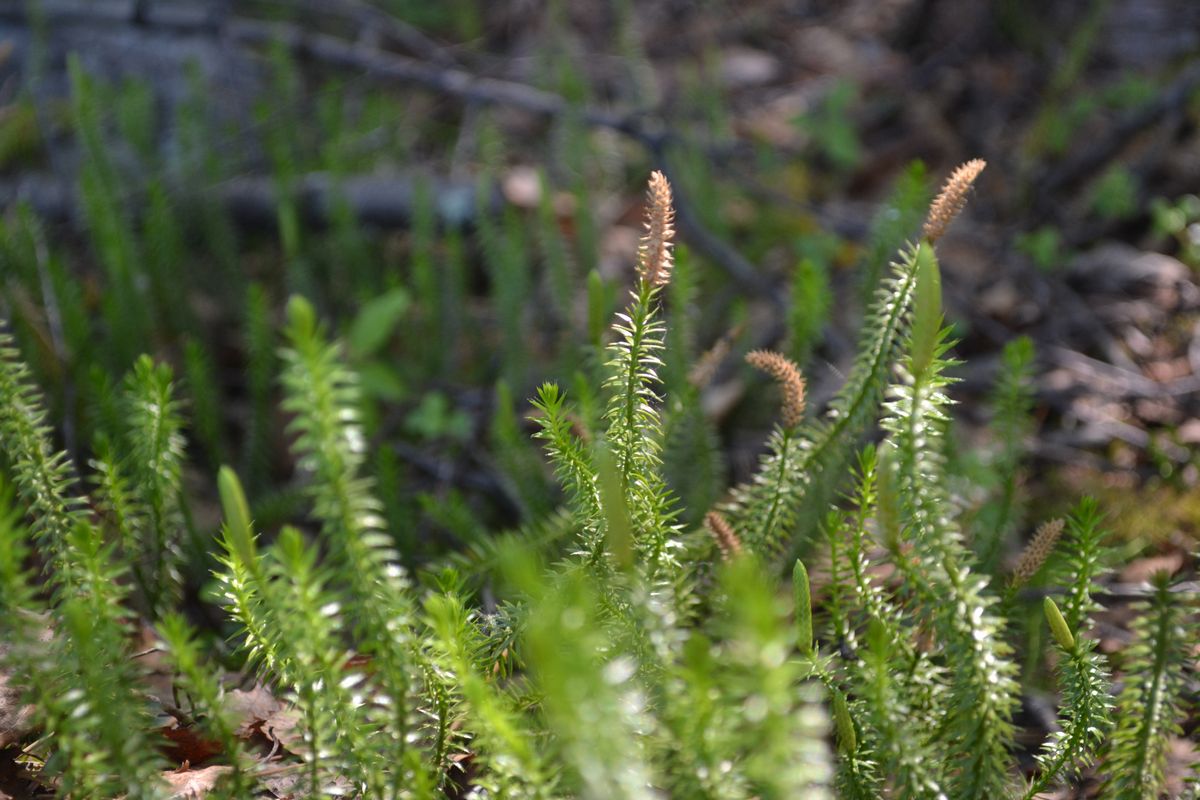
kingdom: Plantae
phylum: Tracheophyta
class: Lycopodiopsida
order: Lycopodiales
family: Lycopodiaceae
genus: Spinulum
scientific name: Spinulum annotinum
